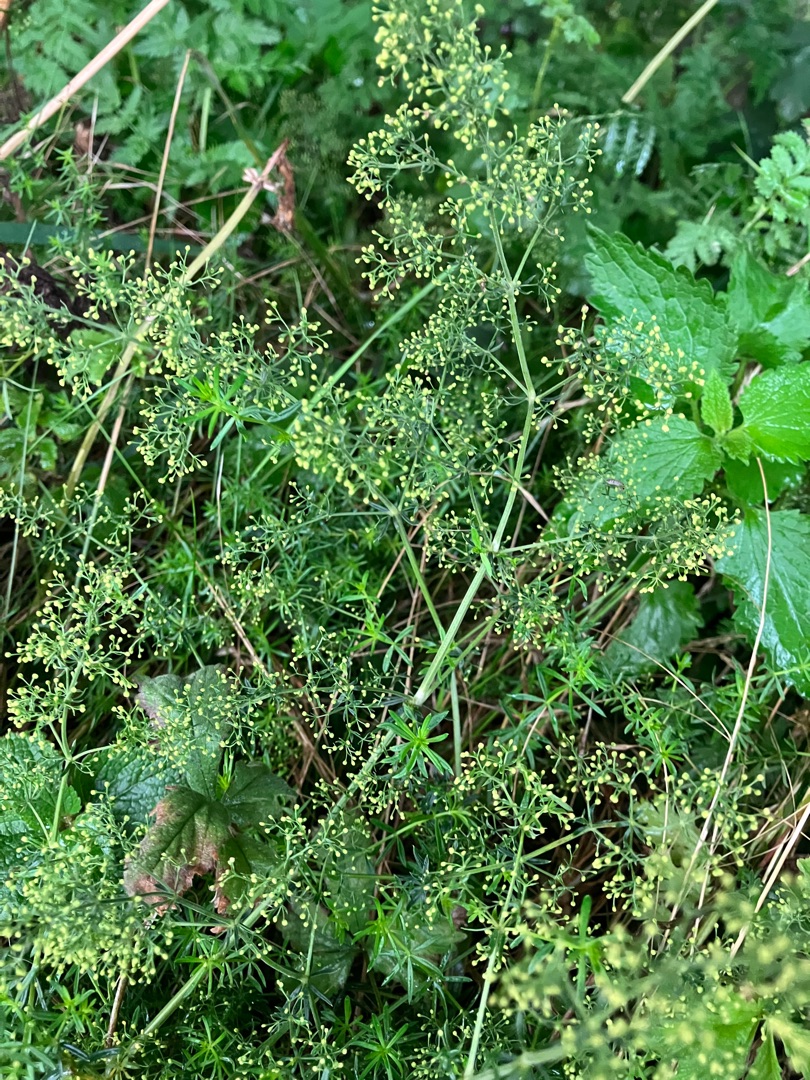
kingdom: Plantae
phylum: Tracheophyta
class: Magnoliopsida
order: Gentianales
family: Rubiaceae
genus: Galium
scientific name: Galium mollugo
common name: Hvid snerre
